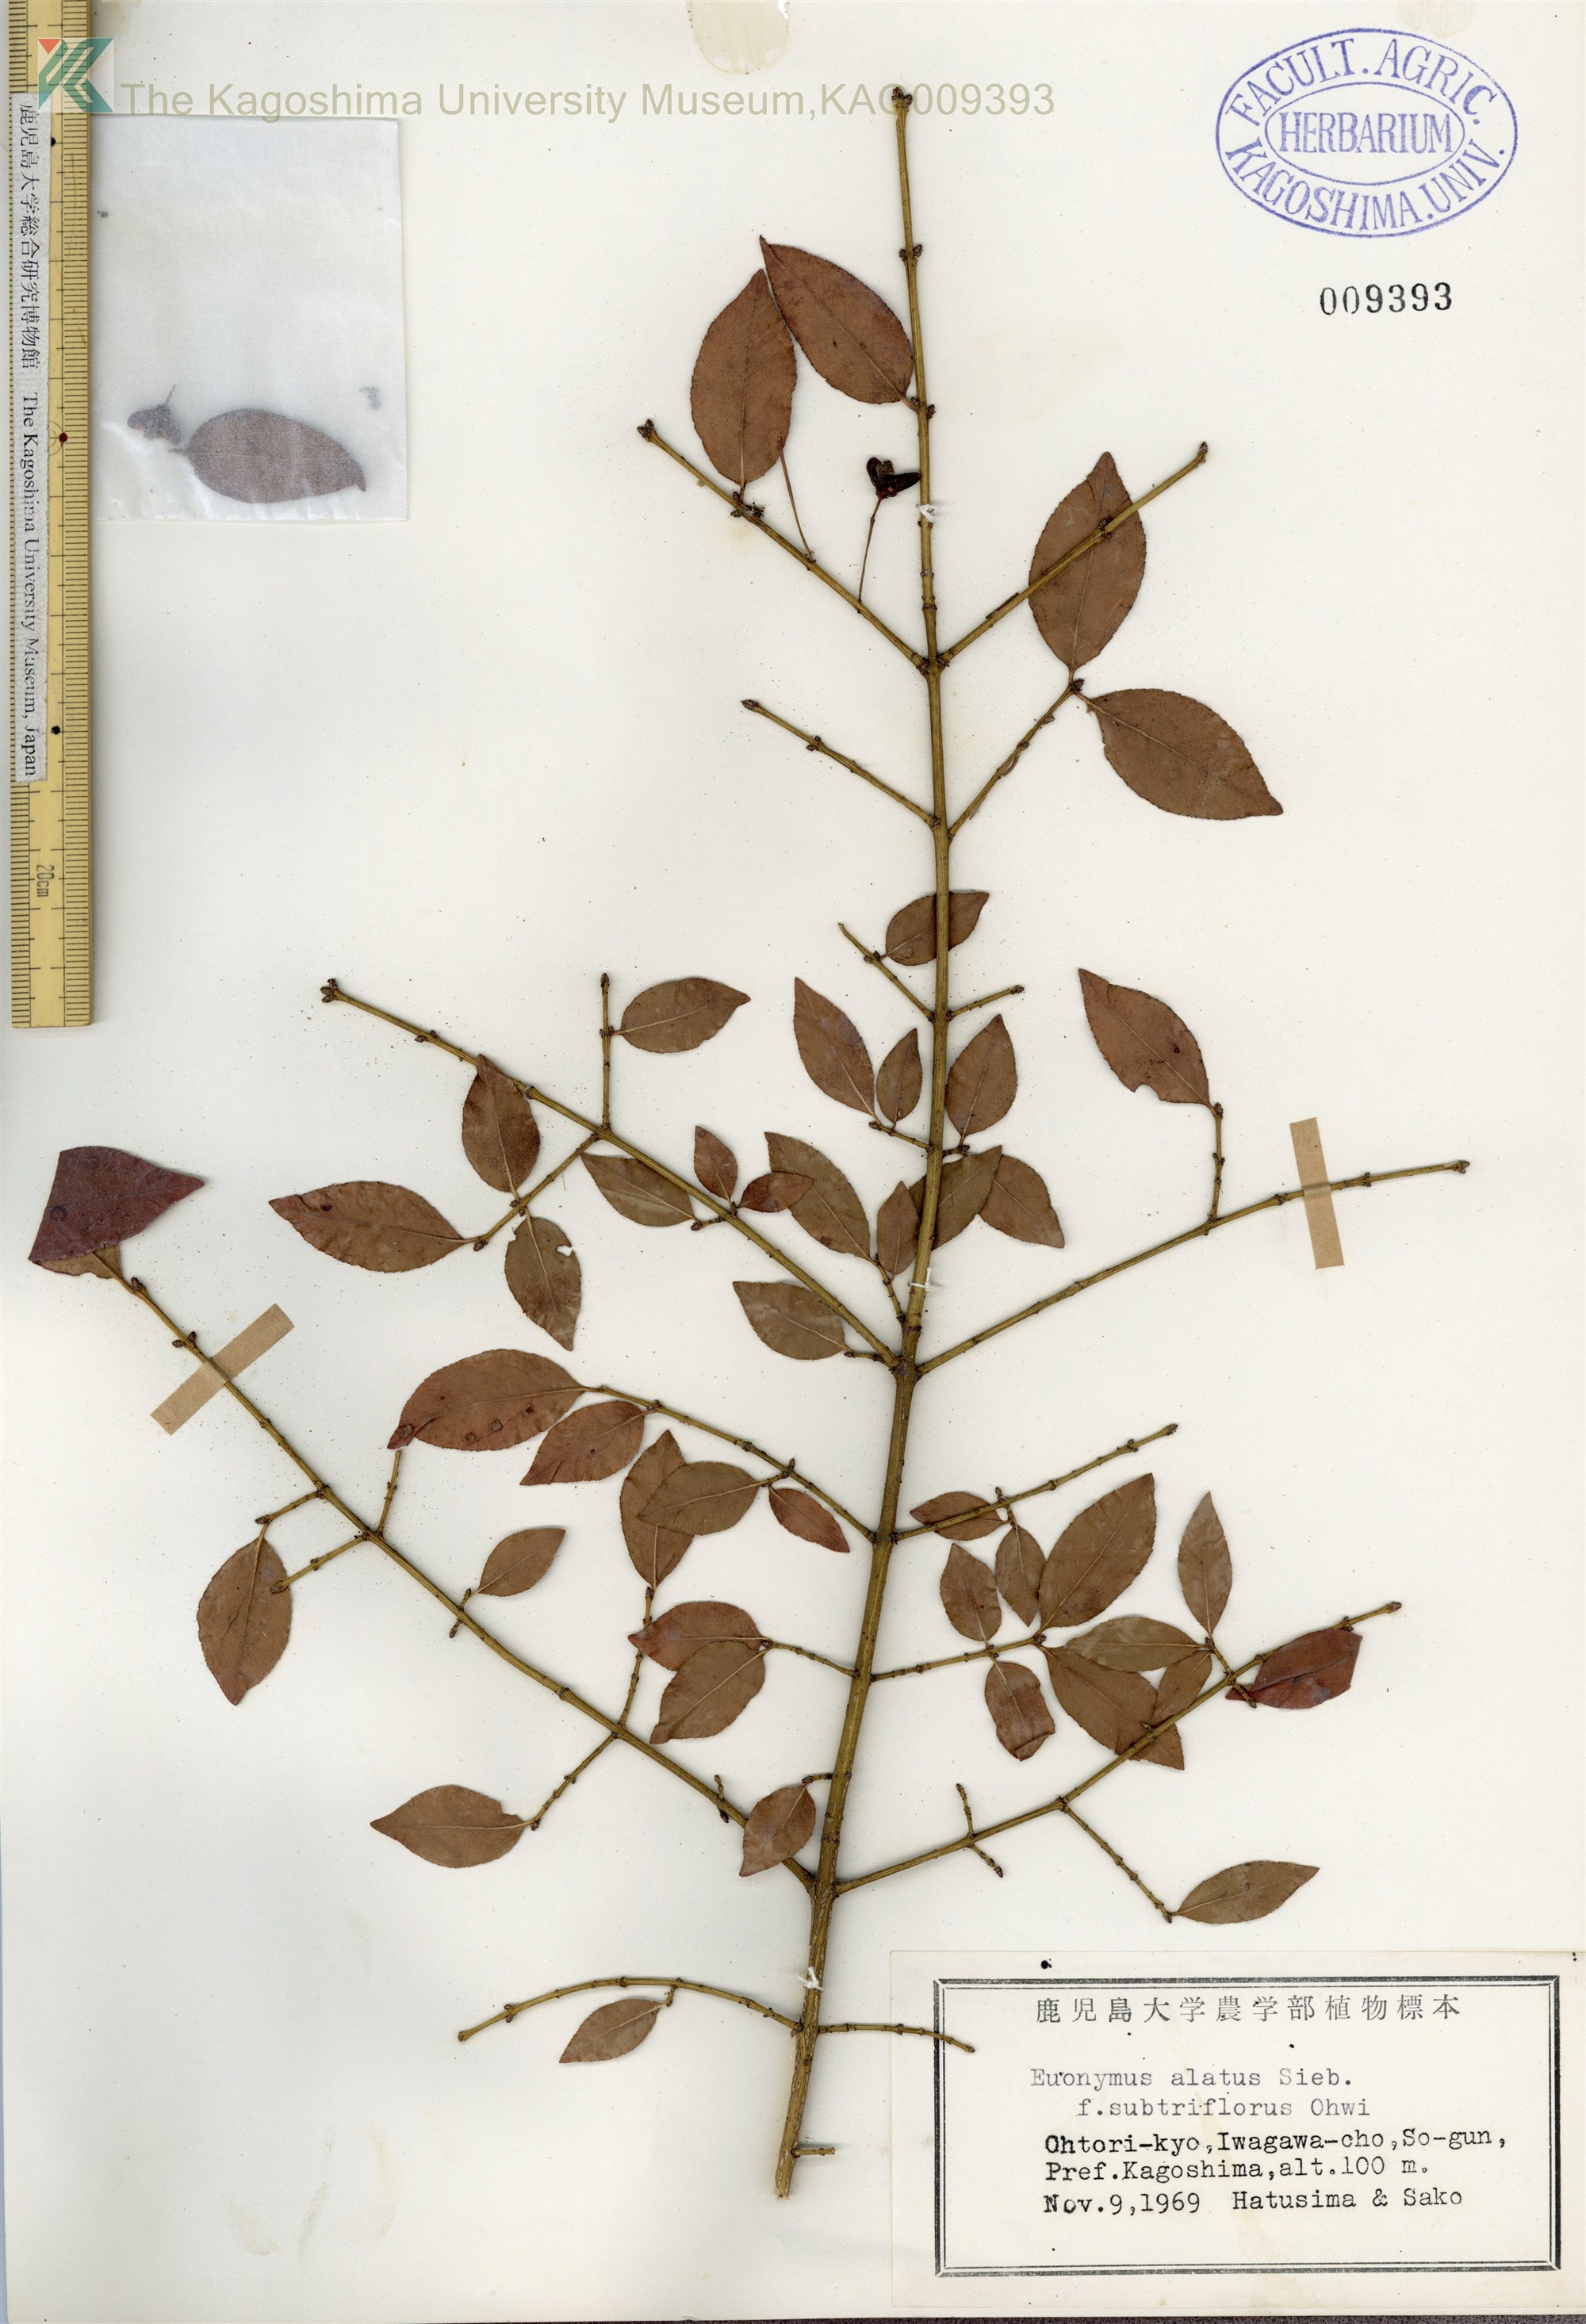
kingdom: Plantae
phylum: Tracheophyta
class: Magnoliopsida
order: Celastrales
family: Celastraceae
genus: Euonymus
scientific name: Euonymus alatus
